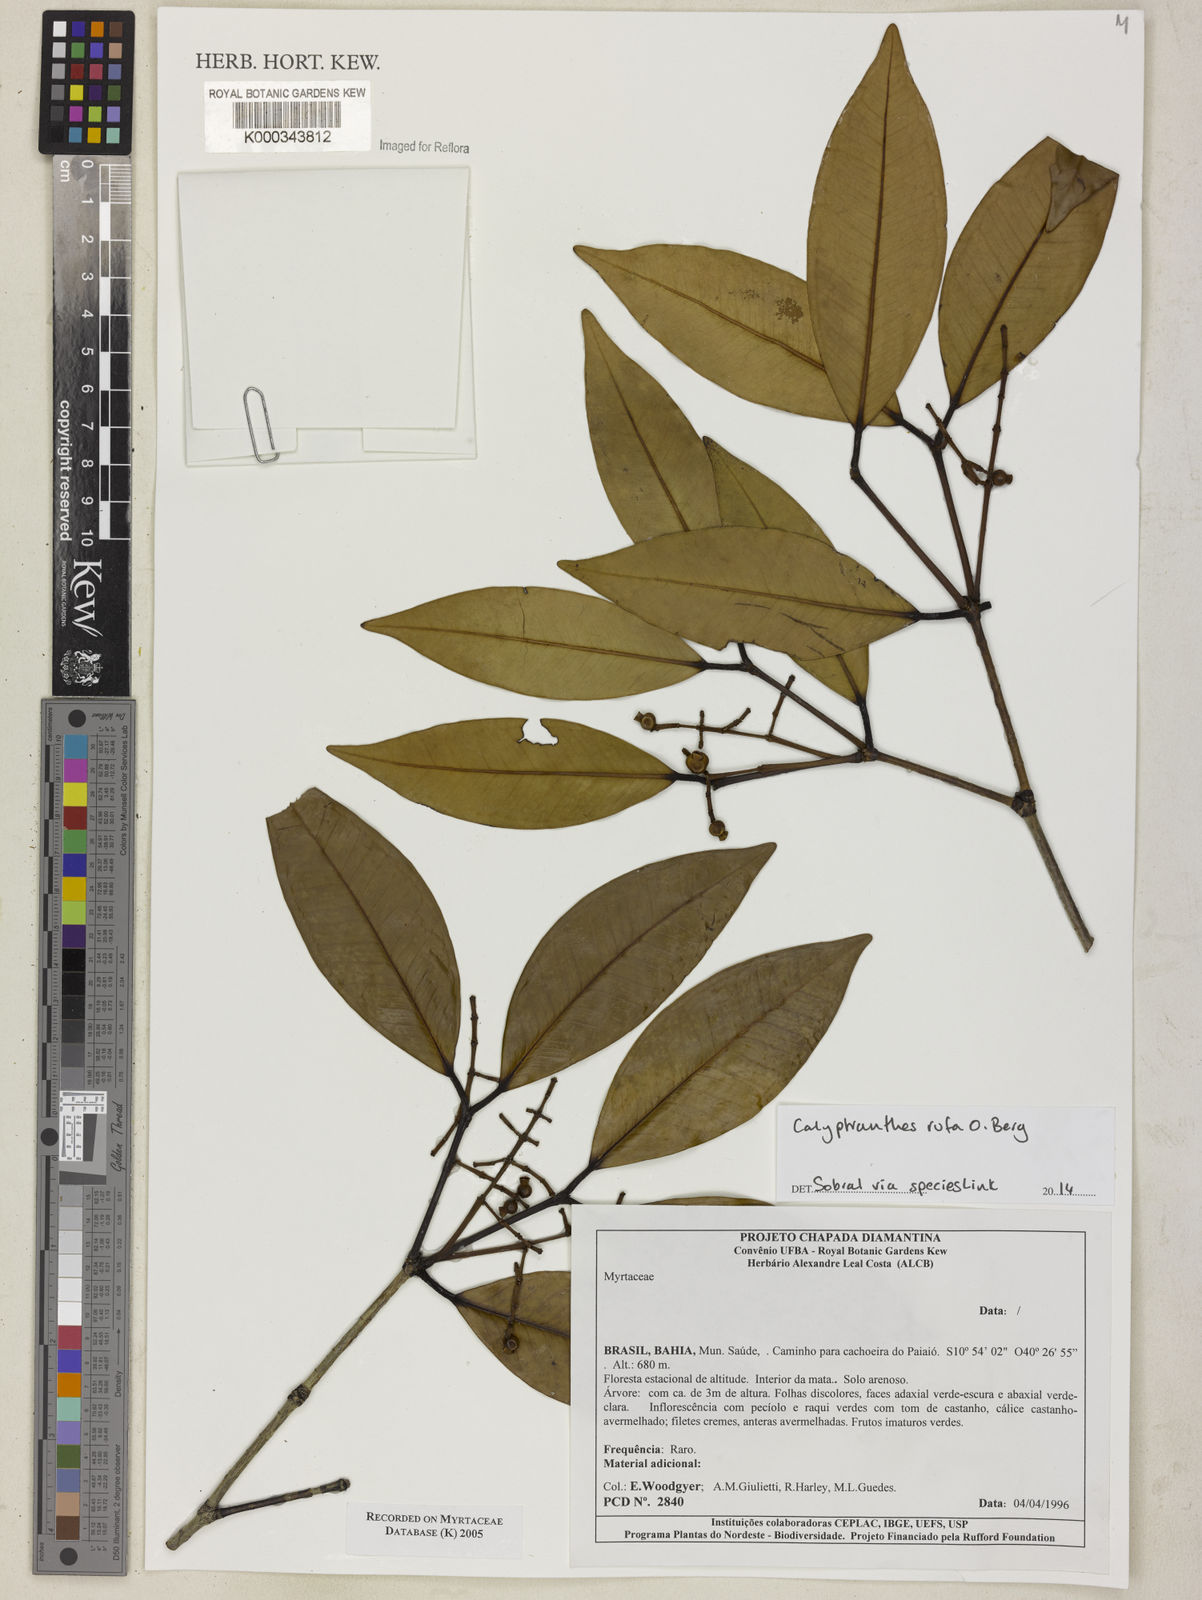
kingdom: Plantae
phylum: Tracheophyta
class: Magnoliopsida
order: Myrtales
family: Myrtaceae
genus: Myrcia
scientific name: Myrcia neolucida
